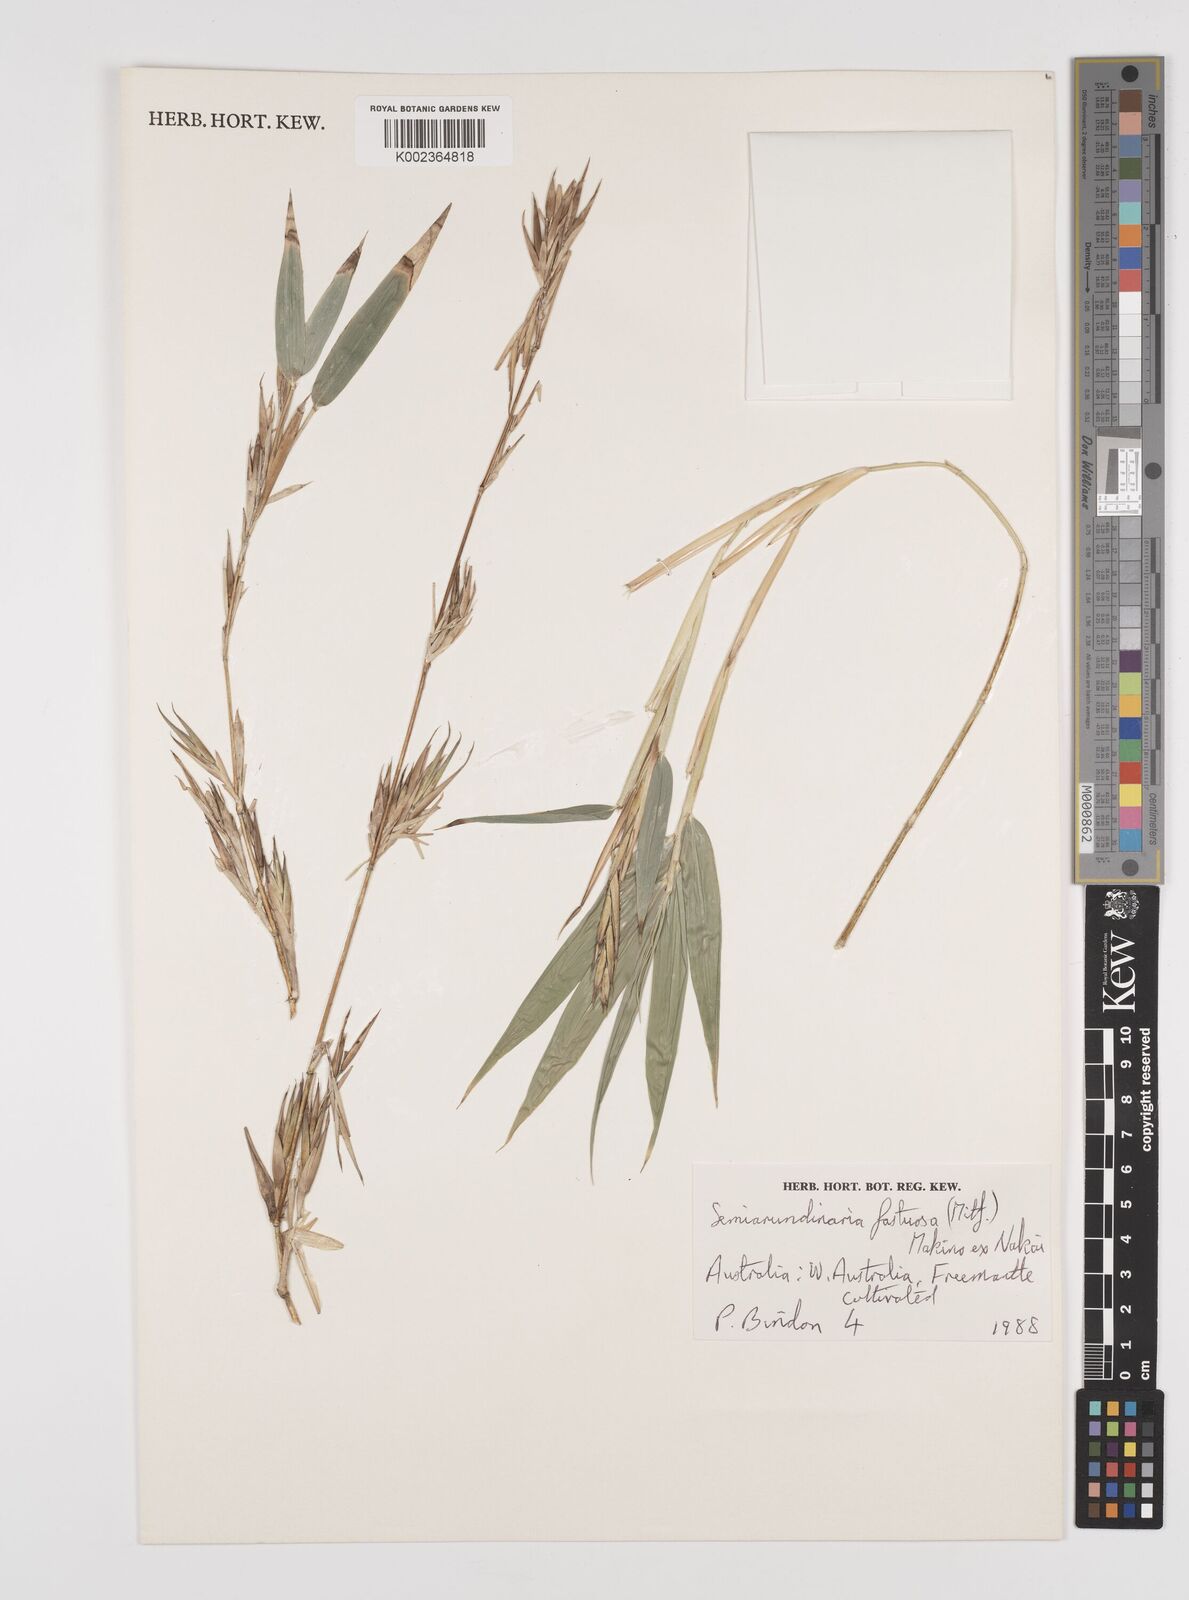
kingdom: Plantae
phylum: Tracheophyta
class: Liliopsida
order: Poales
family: Poaceae
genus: Semiarundinaria
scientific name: Semiarundinaria fastuosa
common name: Narihira bamboo
